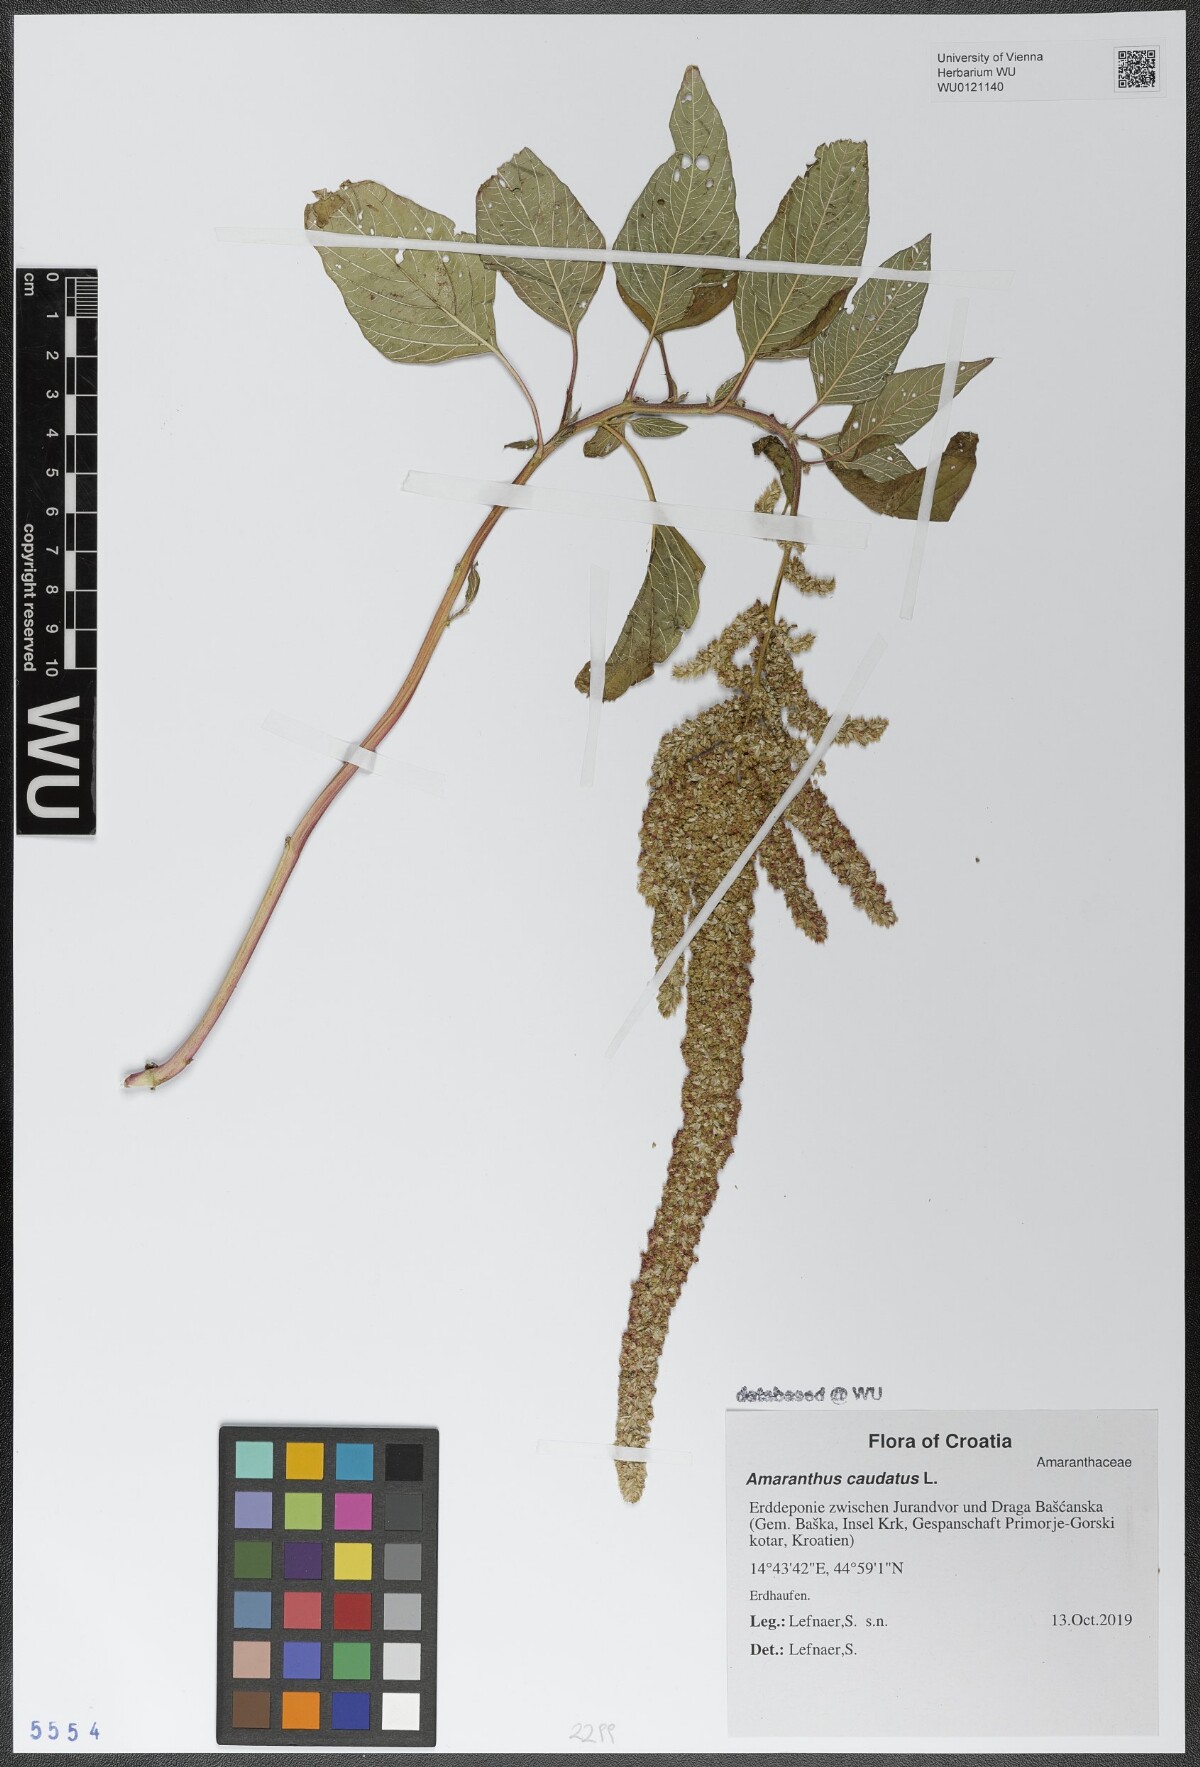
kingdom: Plantae
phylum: Tracheophyta
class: Magnoliopsida
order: Caryophyllales
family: Amaranthaceae
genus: Amaranthus
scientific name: Amaranthus caudatus
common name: Love-lies-bleeding
